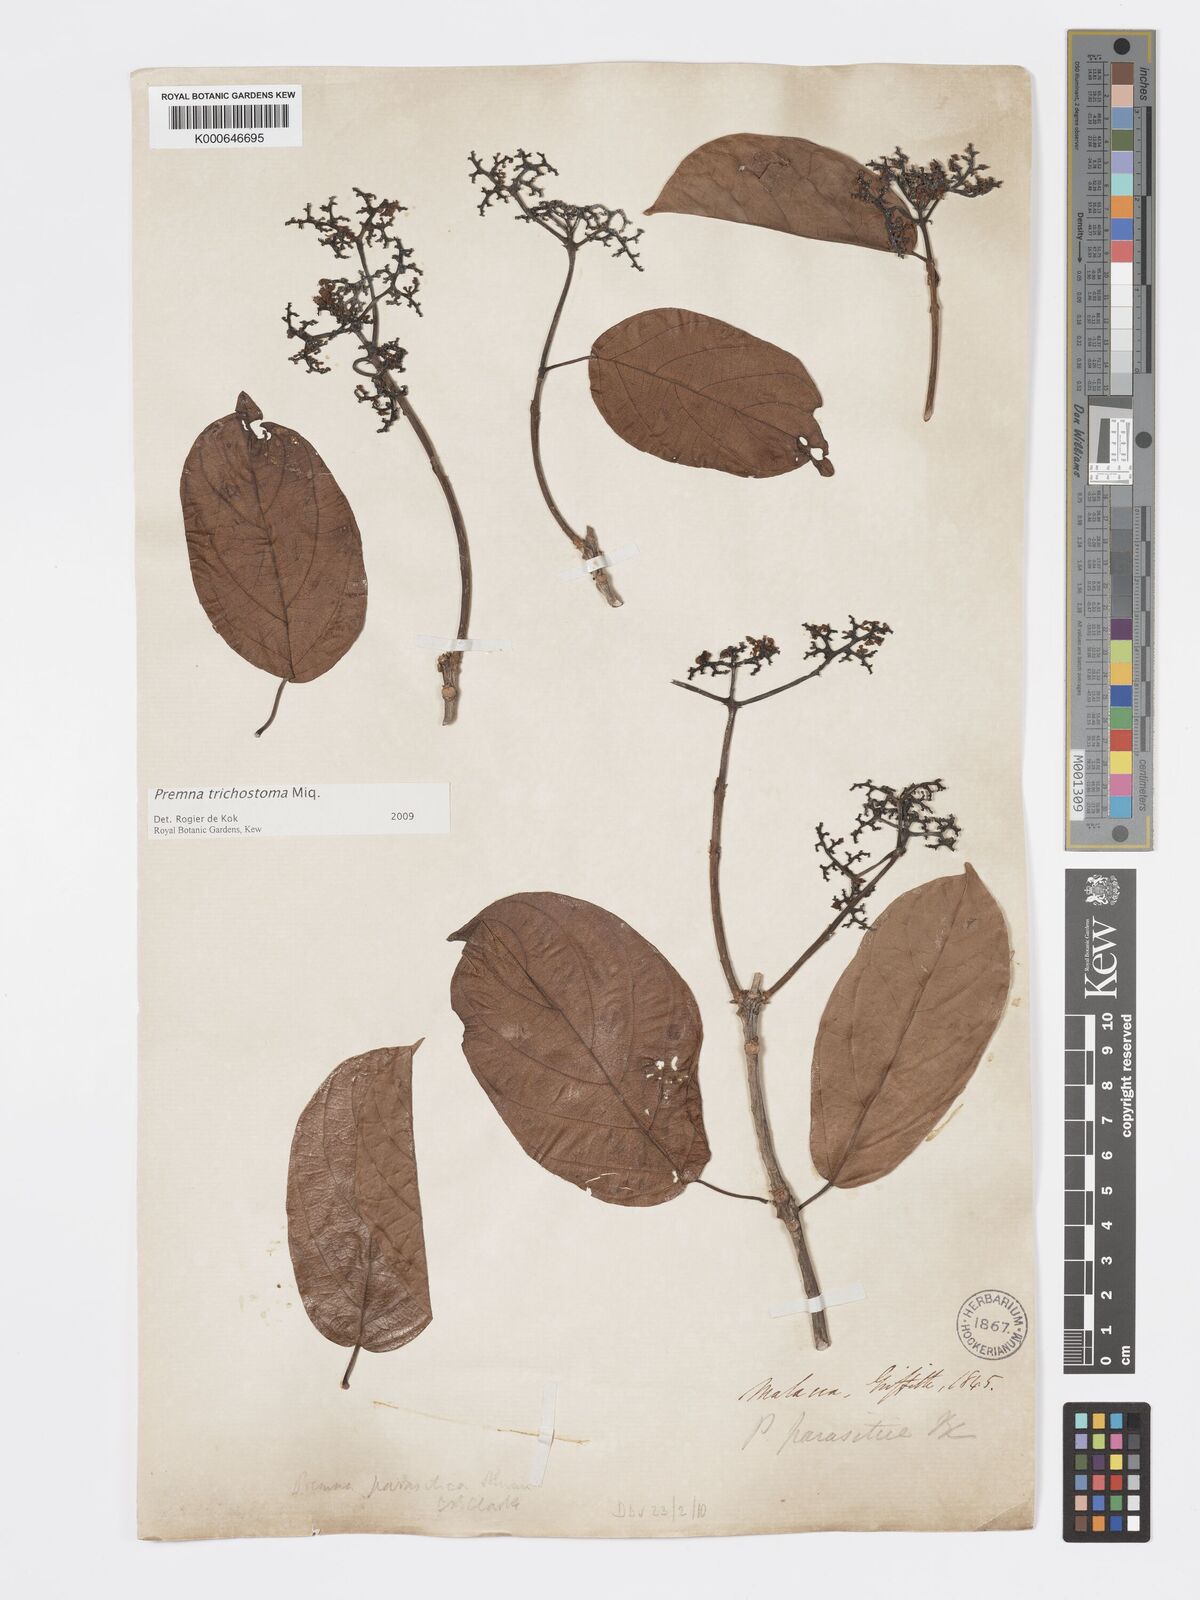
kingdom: Plantae
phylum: Tracheophyta
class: Magnoliopsida
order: Lamiales
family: Lamiaceae
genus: Premna
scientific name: Premna trichostoma
